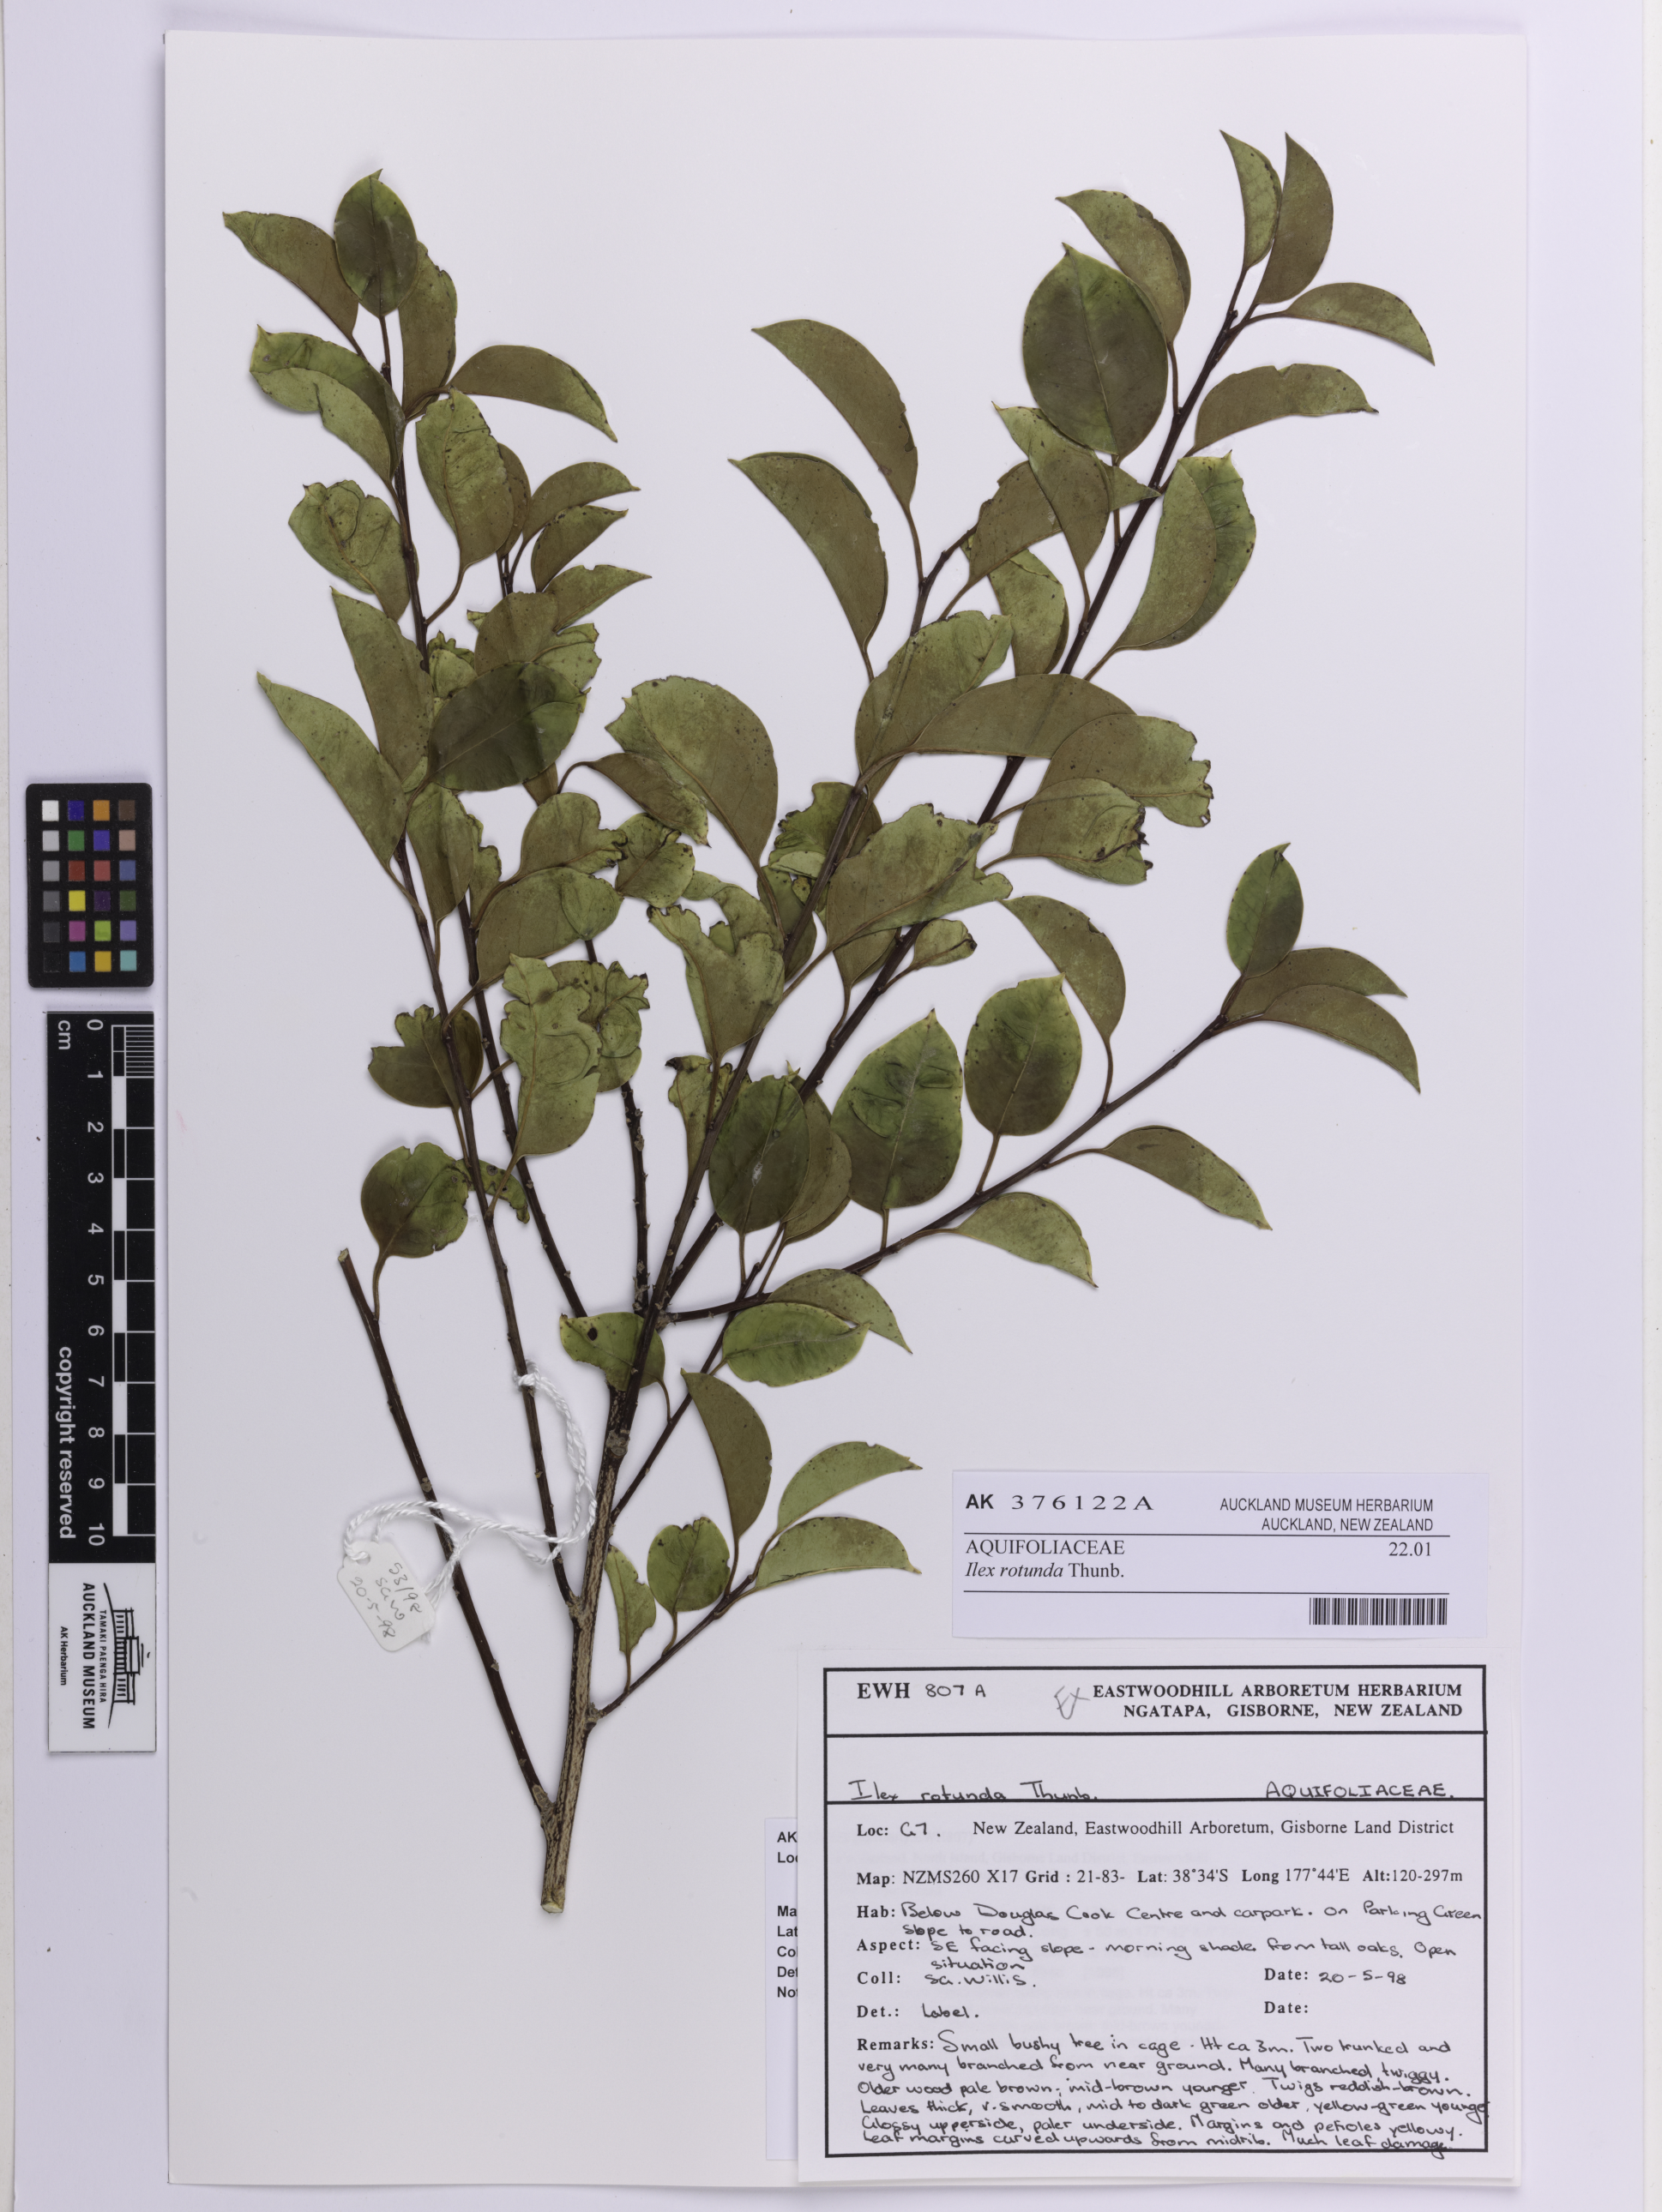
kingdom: Plantae
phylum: Tracheophyta
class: Magnoliopsida
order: Aquifoliales
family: Aquifoliaceae
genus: Ilex
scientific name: Ilex rotunda
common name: Kurogane holly
